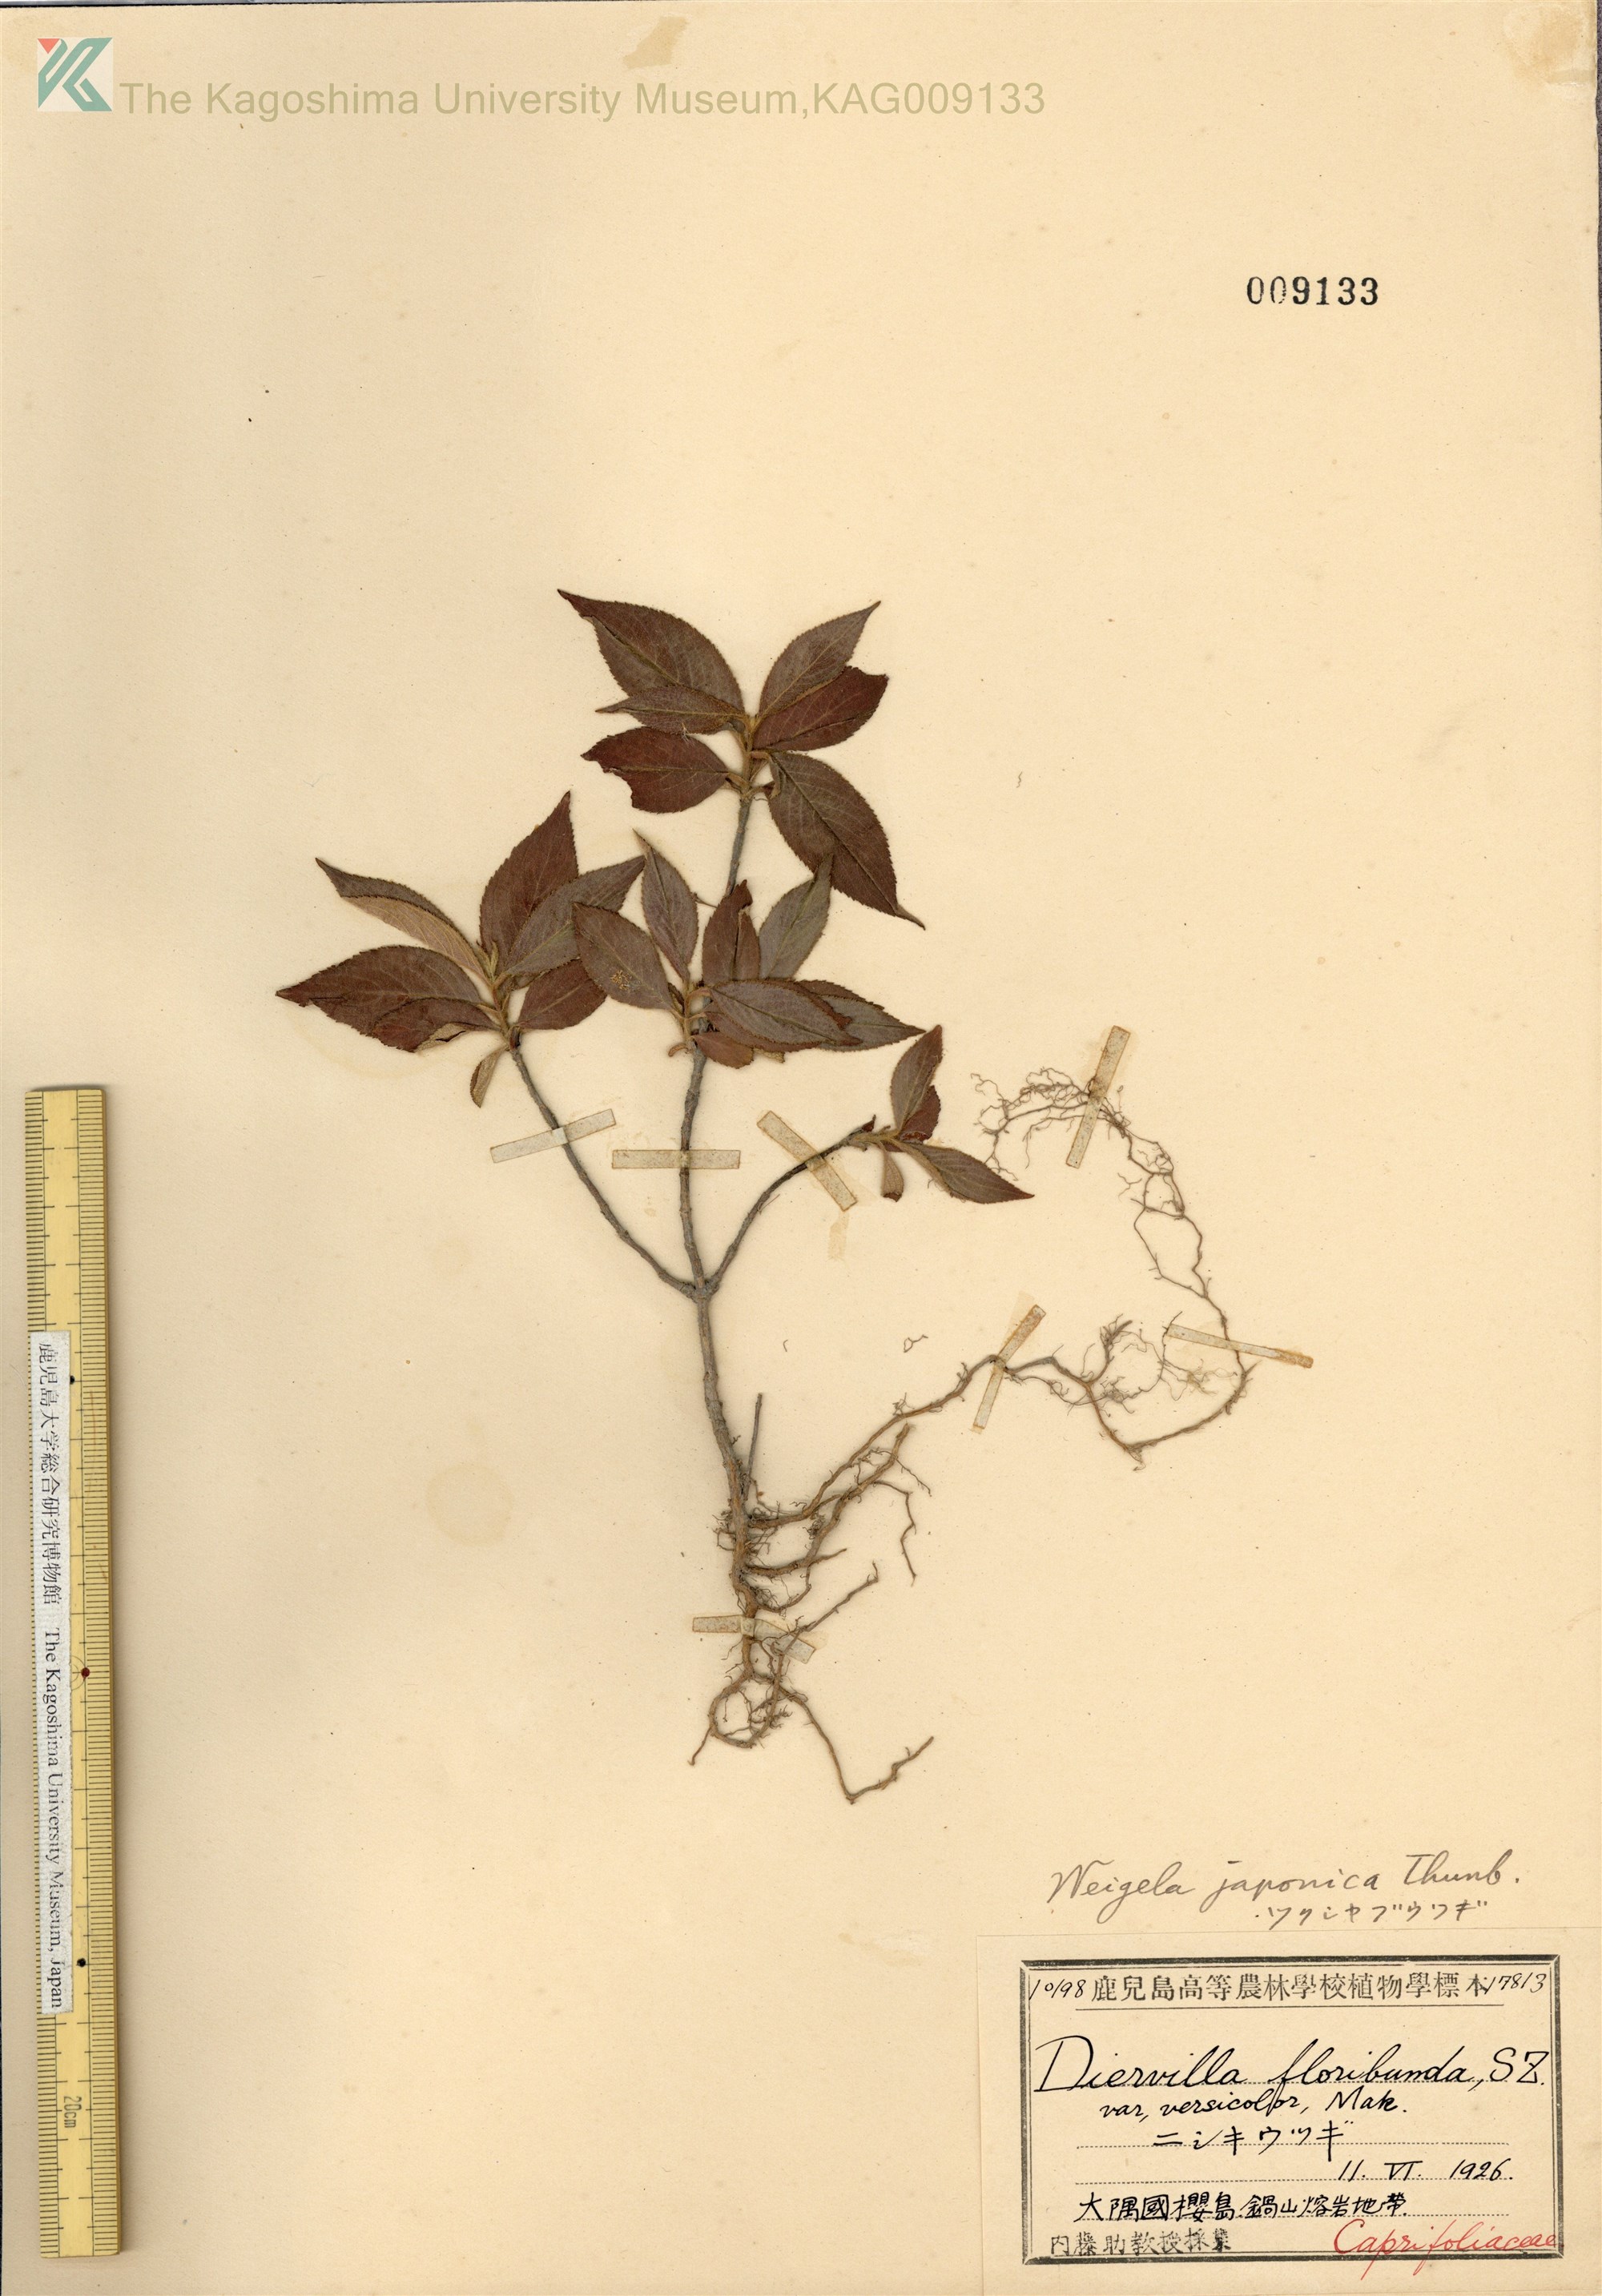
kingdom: Plantae
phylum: Tracheophyta
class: Magnoliopsida
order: Dipsacales
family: Caprifoliaceae
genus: Weigela
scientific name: Weigela japonica
